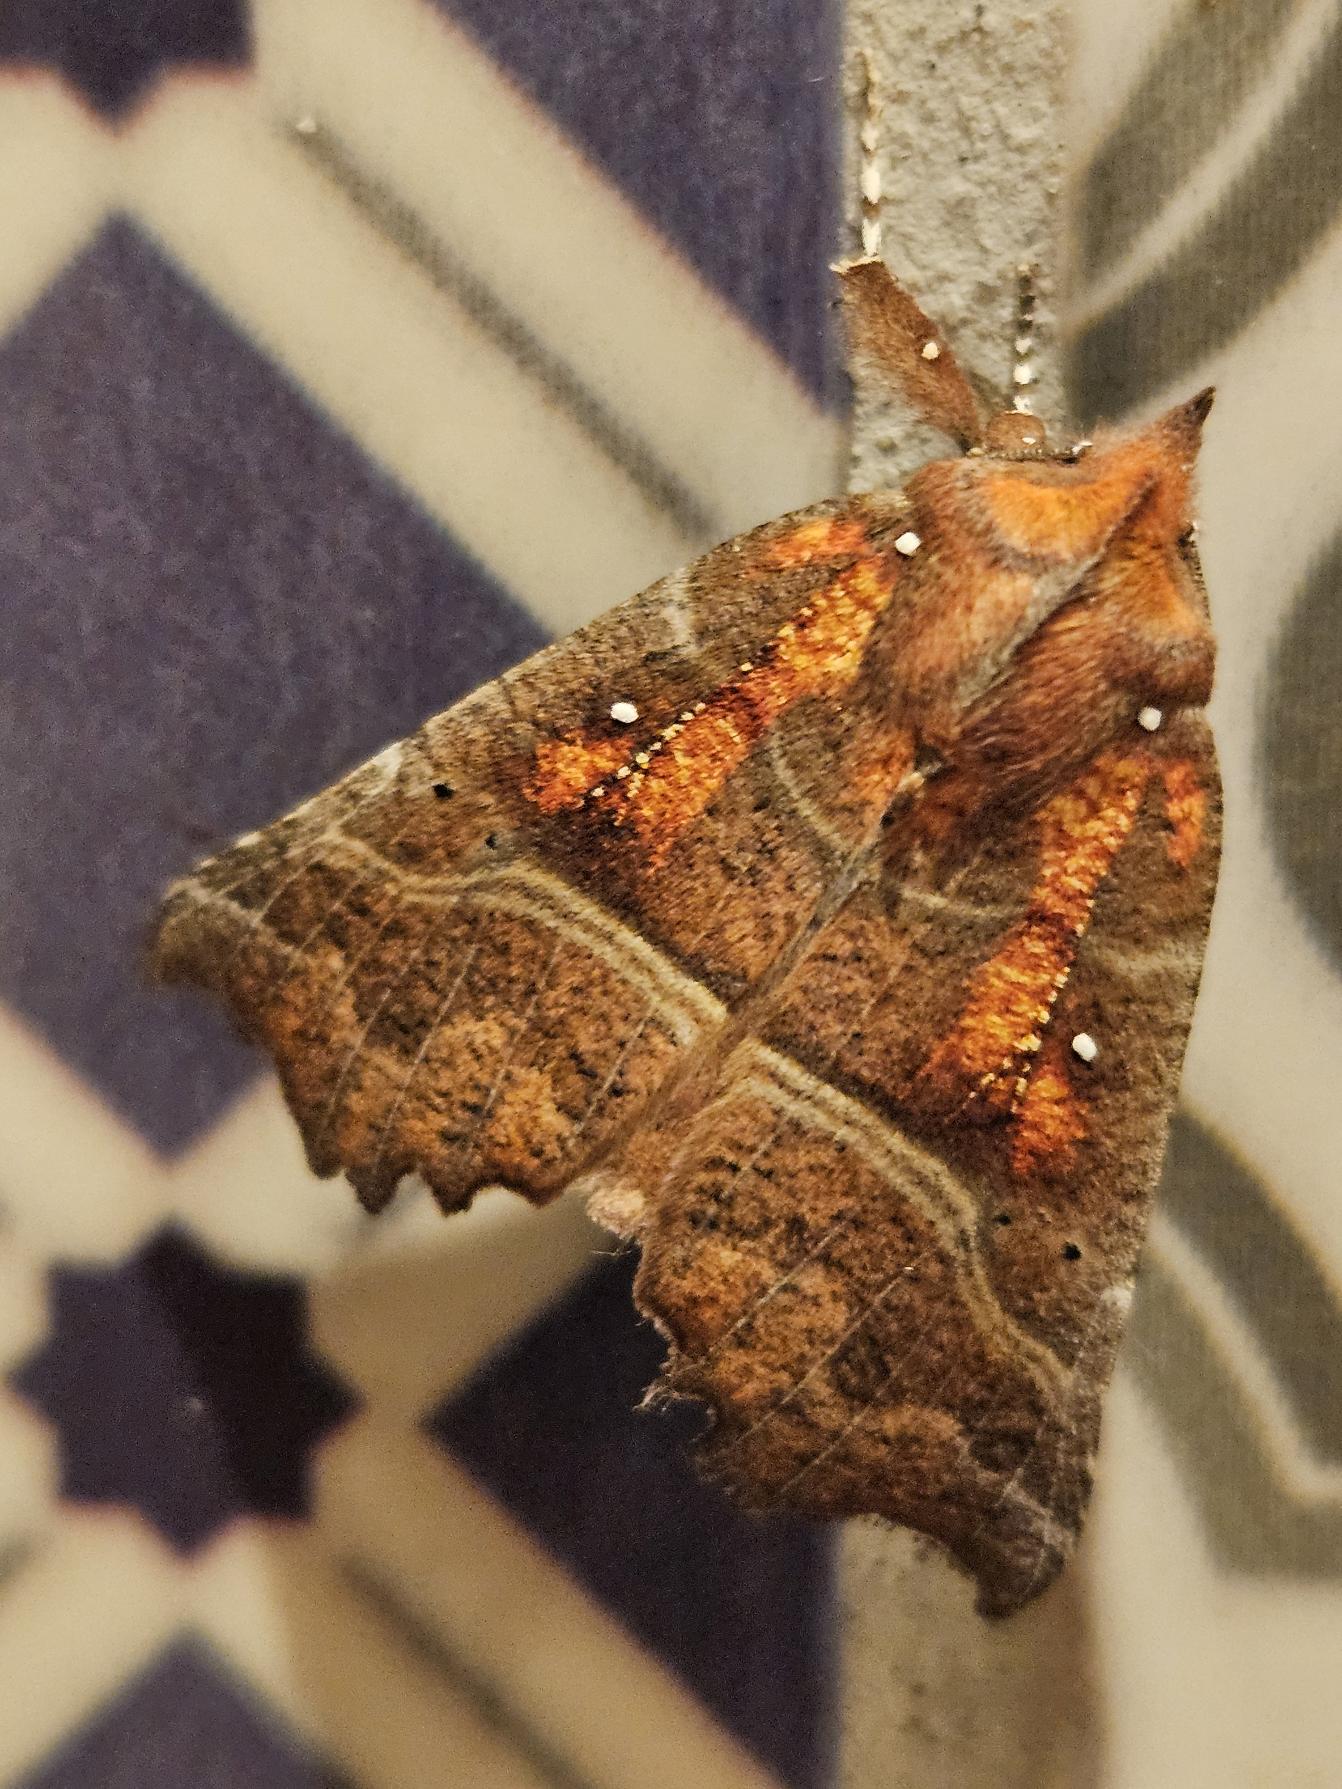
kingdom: Animalia
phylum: Arthropoda
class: Insecta
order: Lepidoptera
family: Erebidae
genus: Scoliopteryx
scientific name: Scoliopteryx libatrix
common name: Husmoderugle
